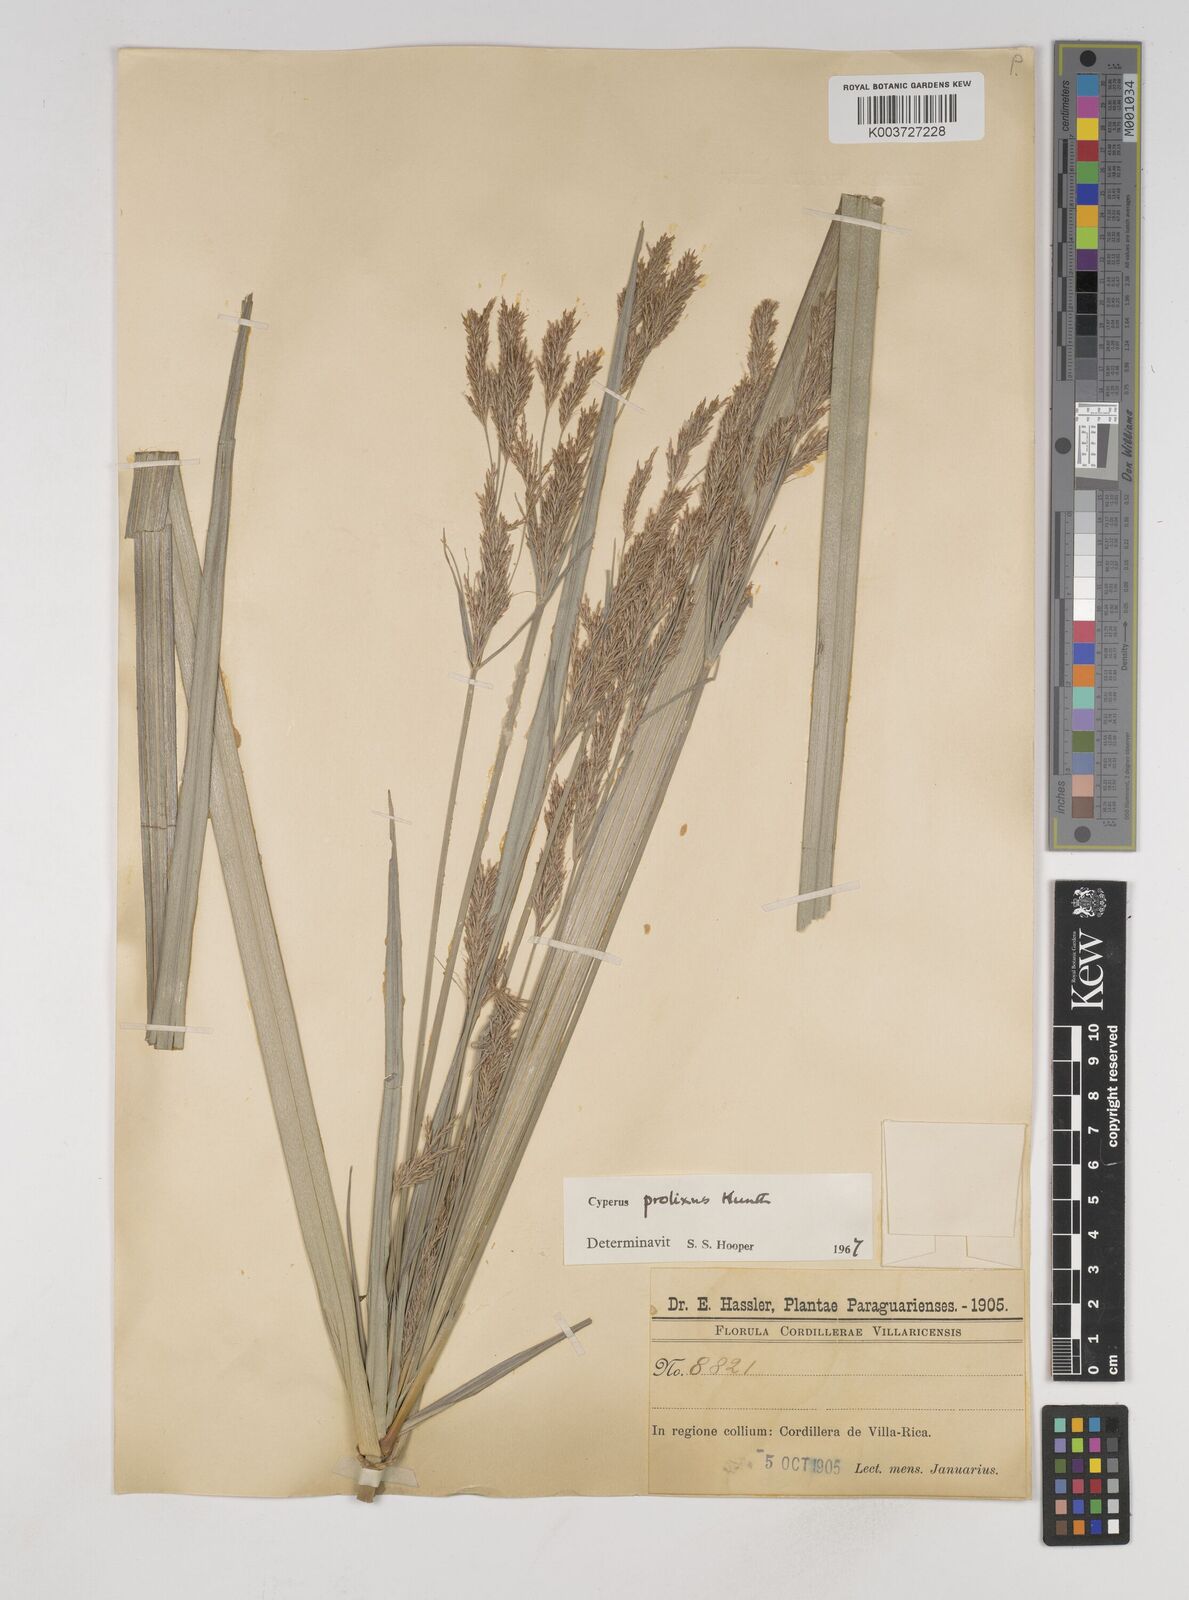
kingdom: Plantae
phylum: Tracheophyta
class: Liliopsida
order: Poales
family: Cyperaceae
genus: Cyperus
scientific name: Cyperus prolixus
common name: Mosquito flatsedge
